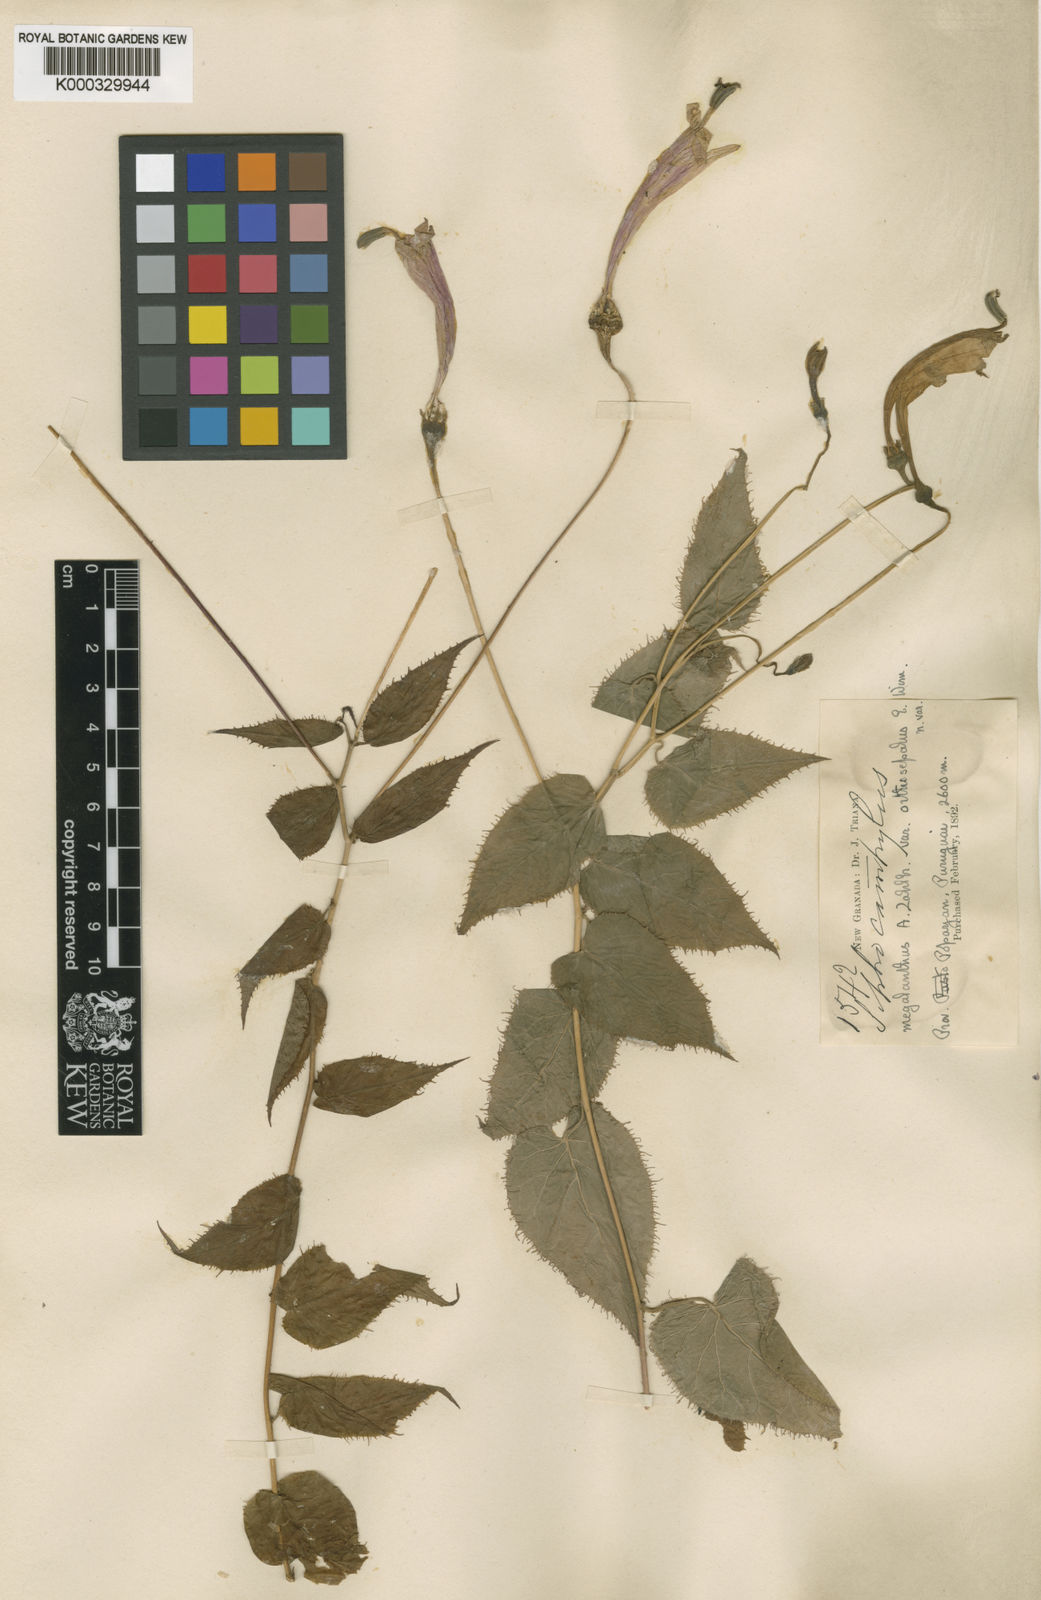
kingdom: Plantae
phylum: Tracheophyta
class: Magnoliopsida
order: Asterales
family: Campanulaceae
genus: Siphocampylus
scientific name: Siphocampylus megalanthus
